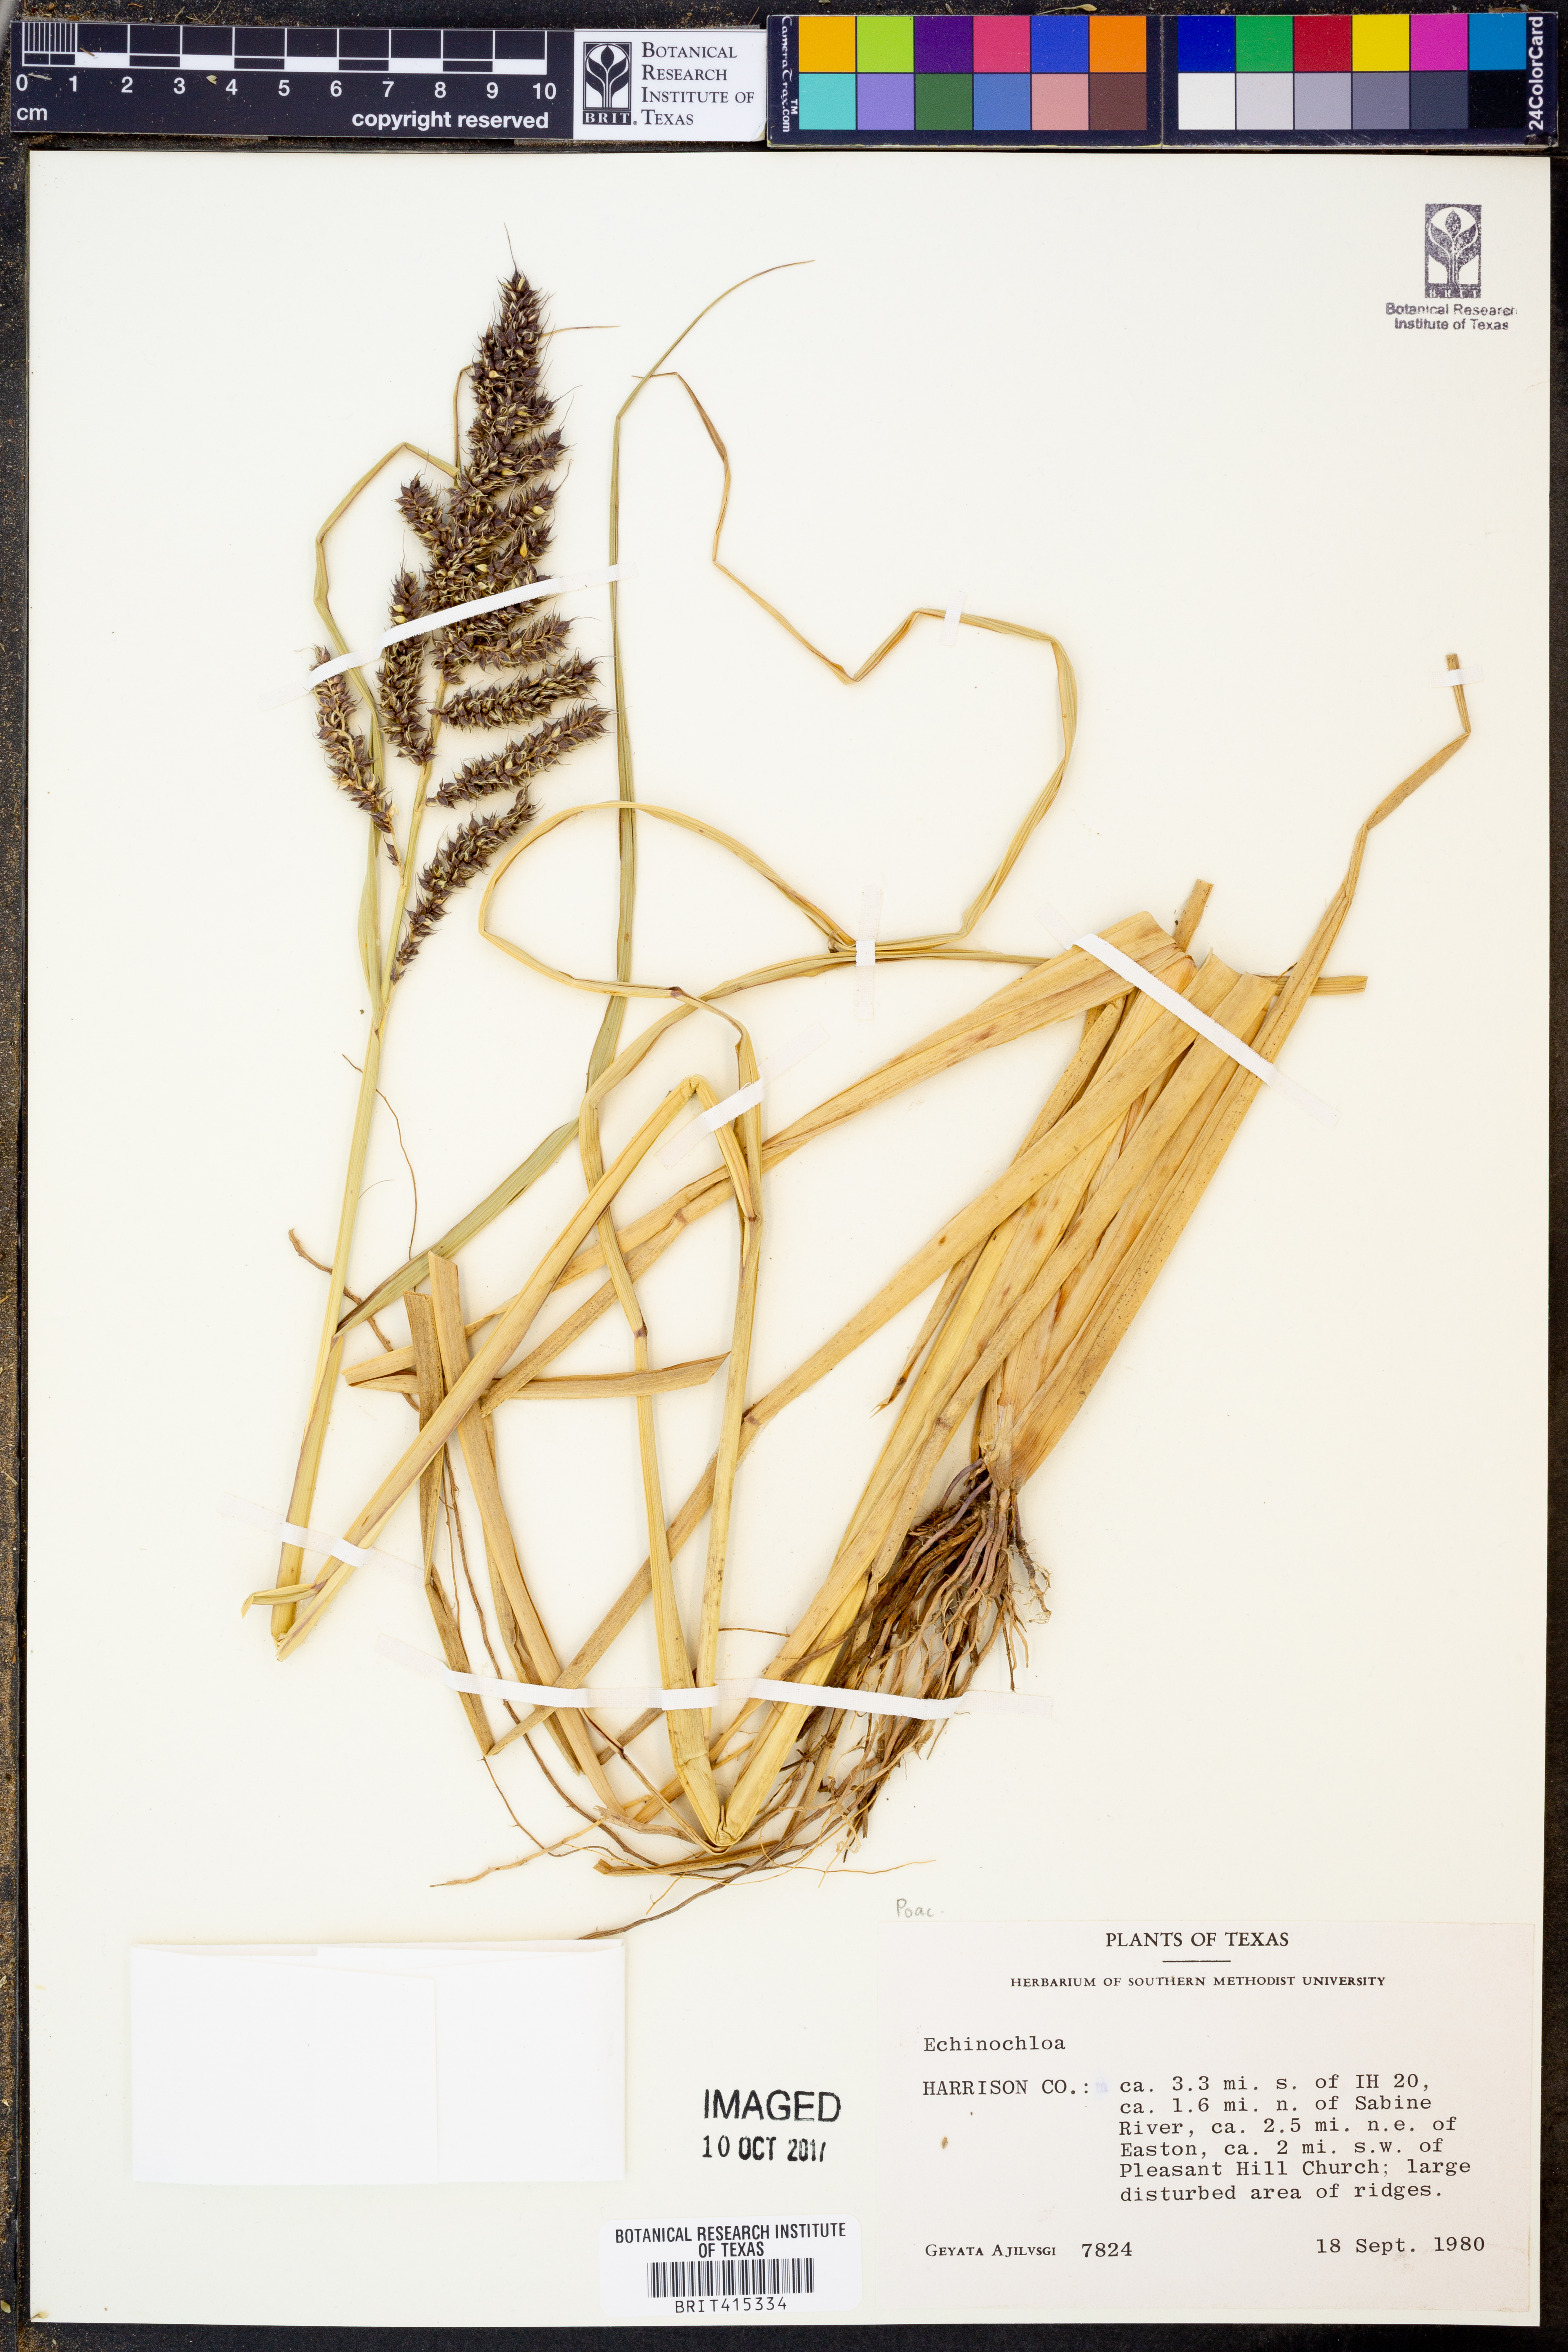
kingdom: Plantae
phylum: Tracheophyta
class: Liliopsida
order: Poales
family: Poaceae
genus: Echinochloa
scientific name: Echinochloa
